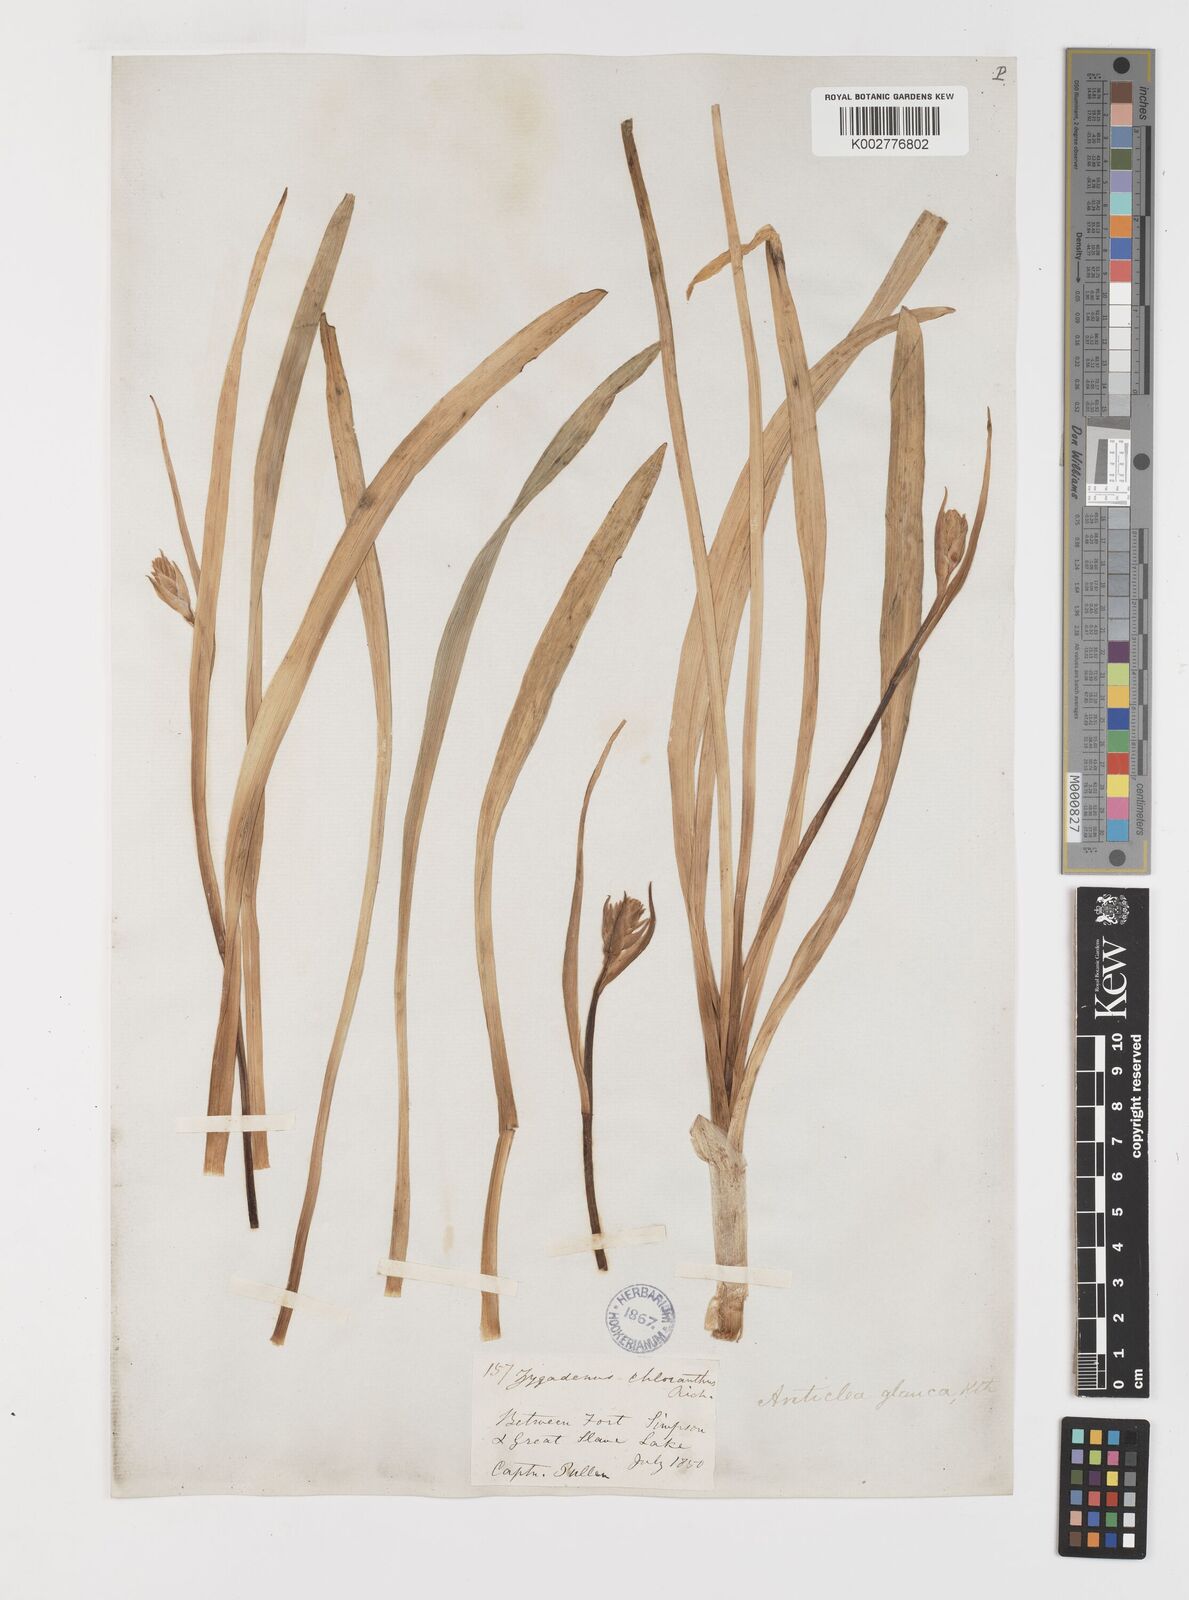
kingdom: Plantae
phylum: Tracheophyta
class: Liliopsida
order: Liliales
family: Melanthiaceae
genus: Anticlea
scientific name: Anticlea elegans
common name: Mountain death camas
